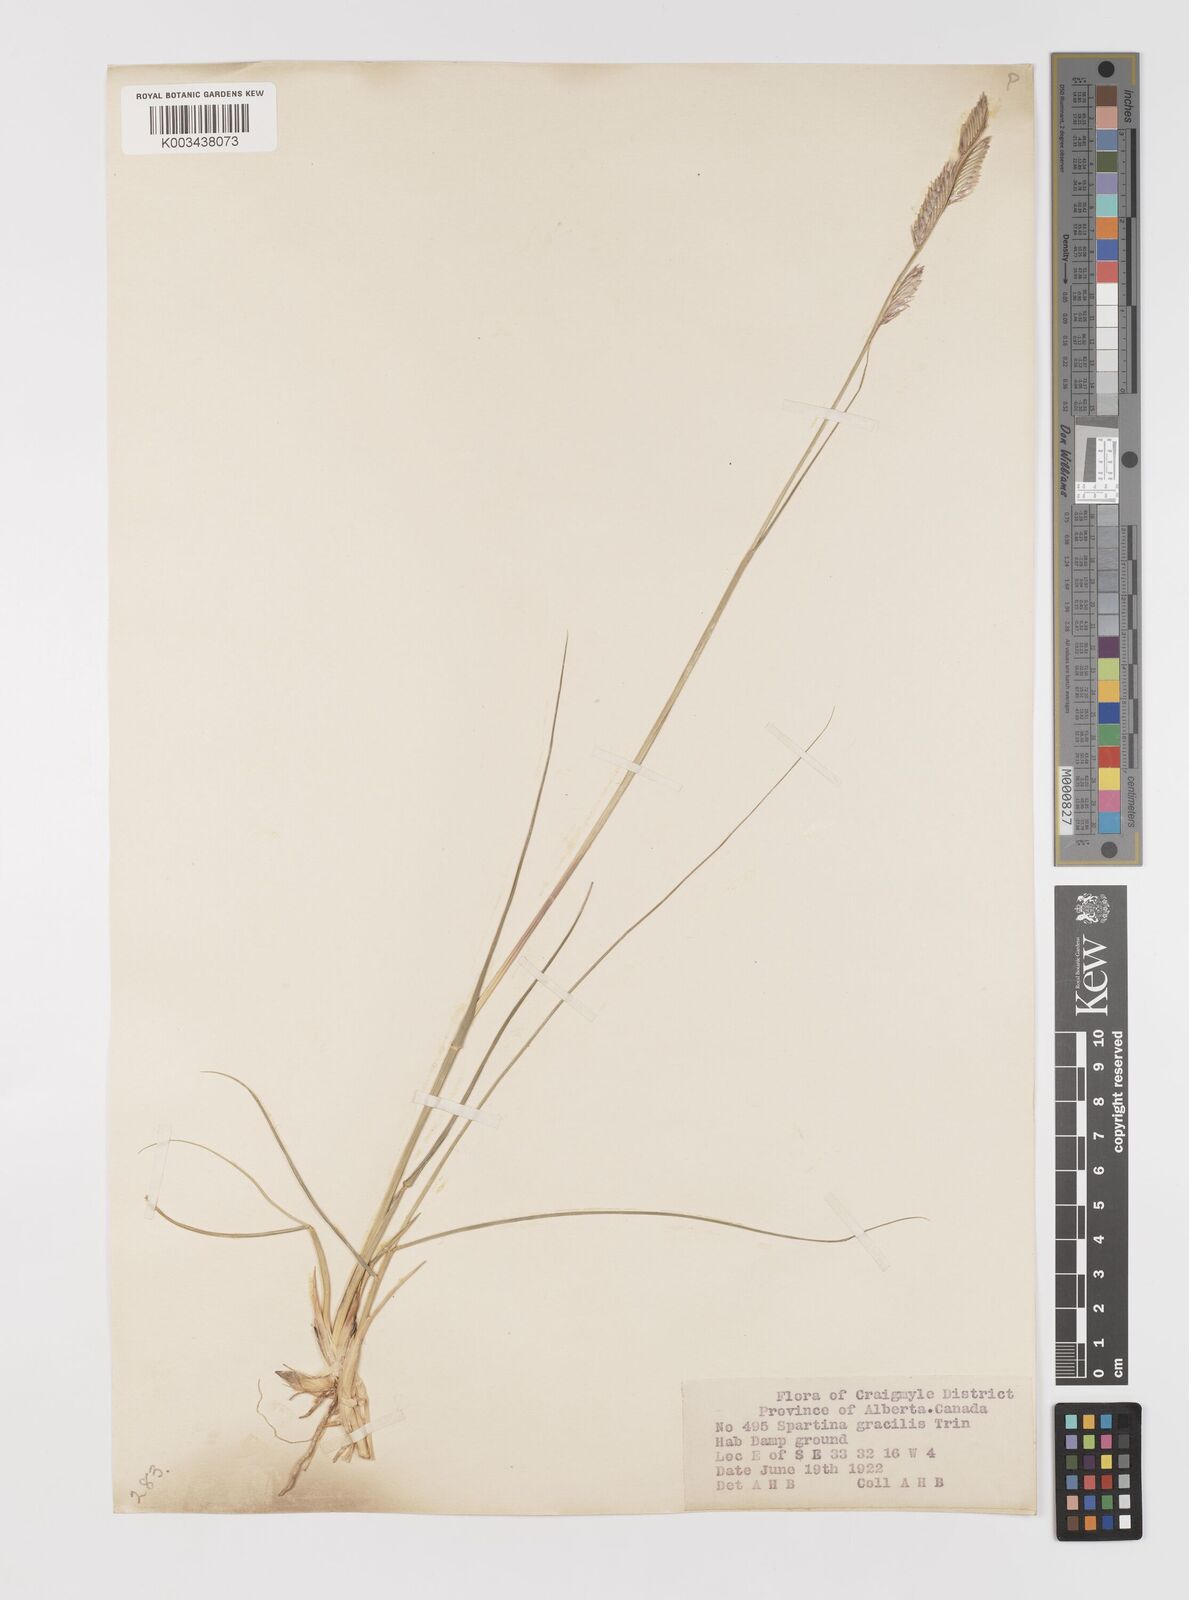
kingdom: Plantae
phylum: Tracheophyta
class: Liliopsida
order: Poales
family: Poaceae
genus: Sporobolus
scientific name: Sporobolus hookerianus
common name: Alkali cordgrass
